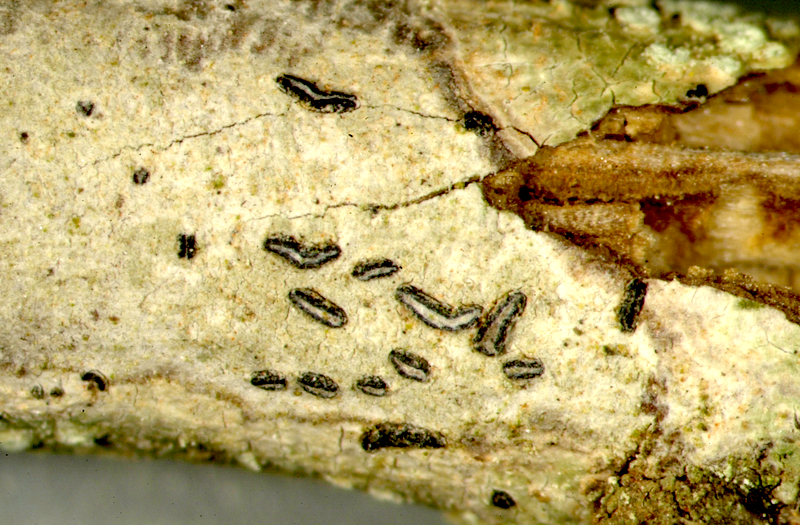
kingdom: Fungi
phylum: Ascomycota
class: Arthoniomycetes
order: Arthoniales
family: Opegraphaceae
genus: Opegrapha
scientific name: Opegrapha
